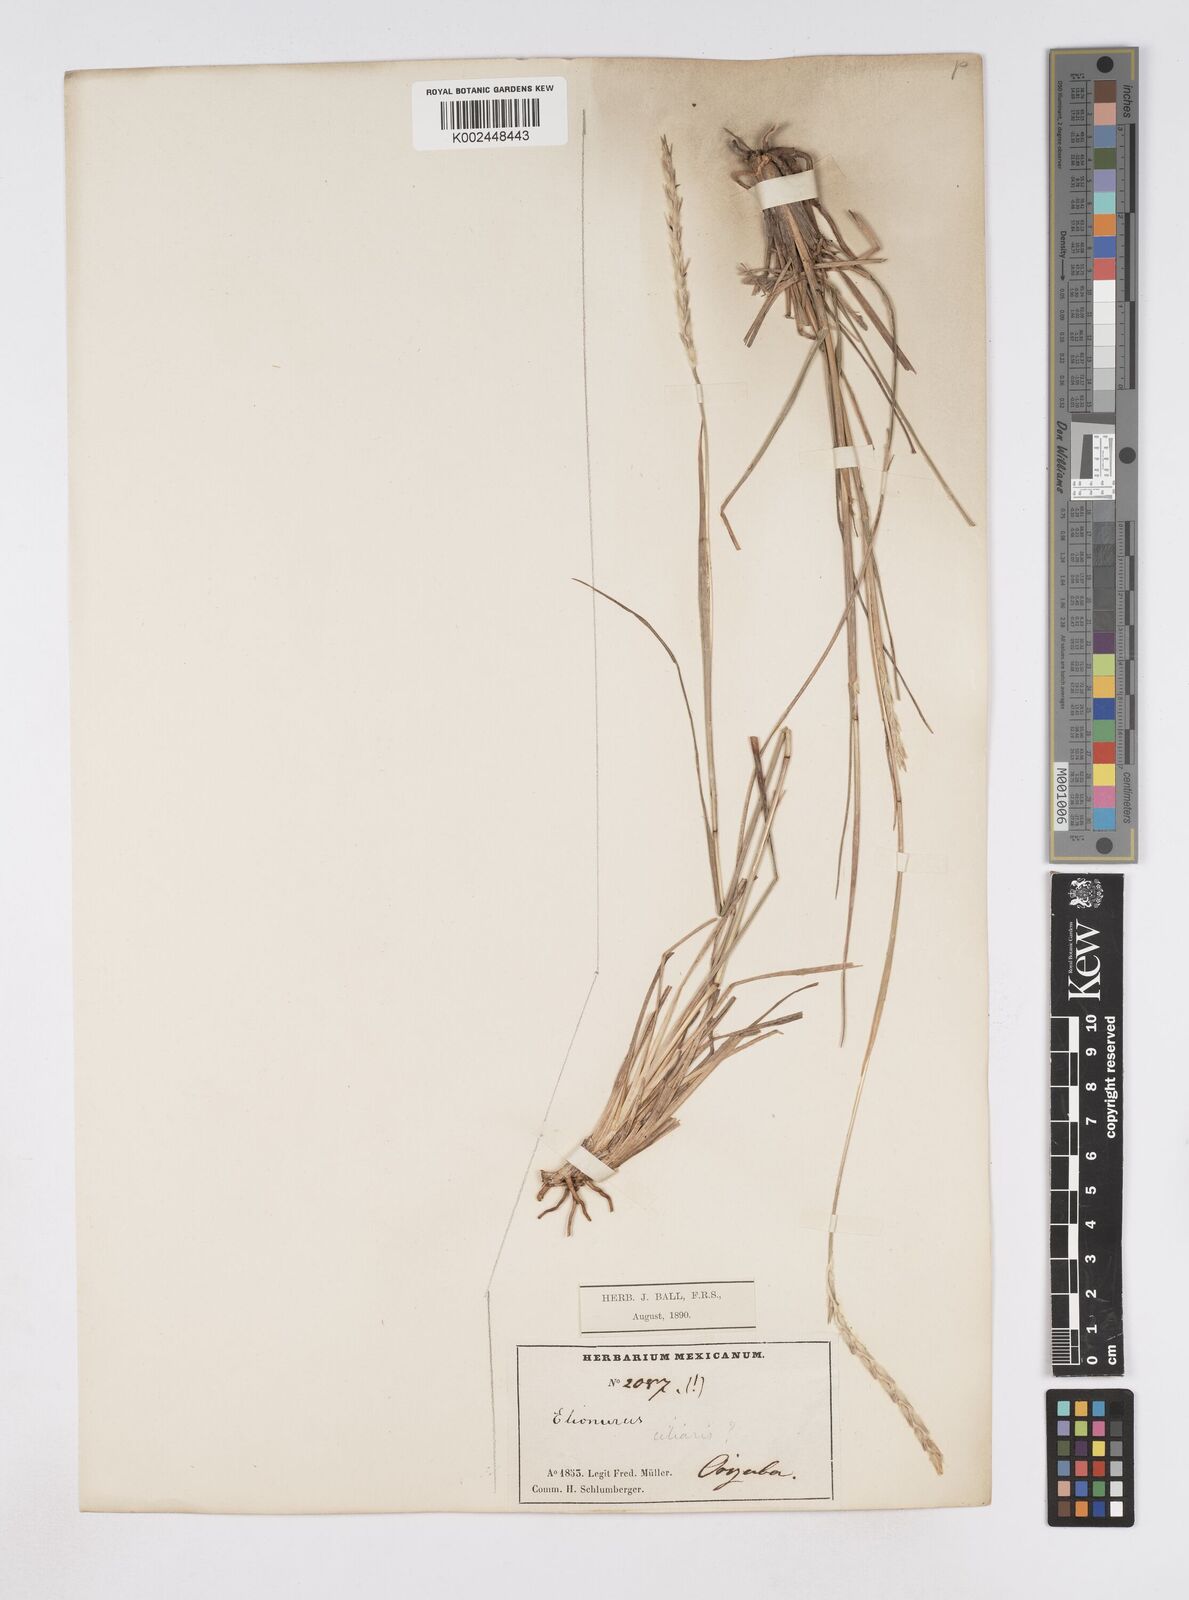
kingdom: Plantae
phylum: Tracheophyta
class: Liliopsida
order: Poales
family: Poaceae
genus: Elionurus
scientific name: Elionurus barbiculmis
